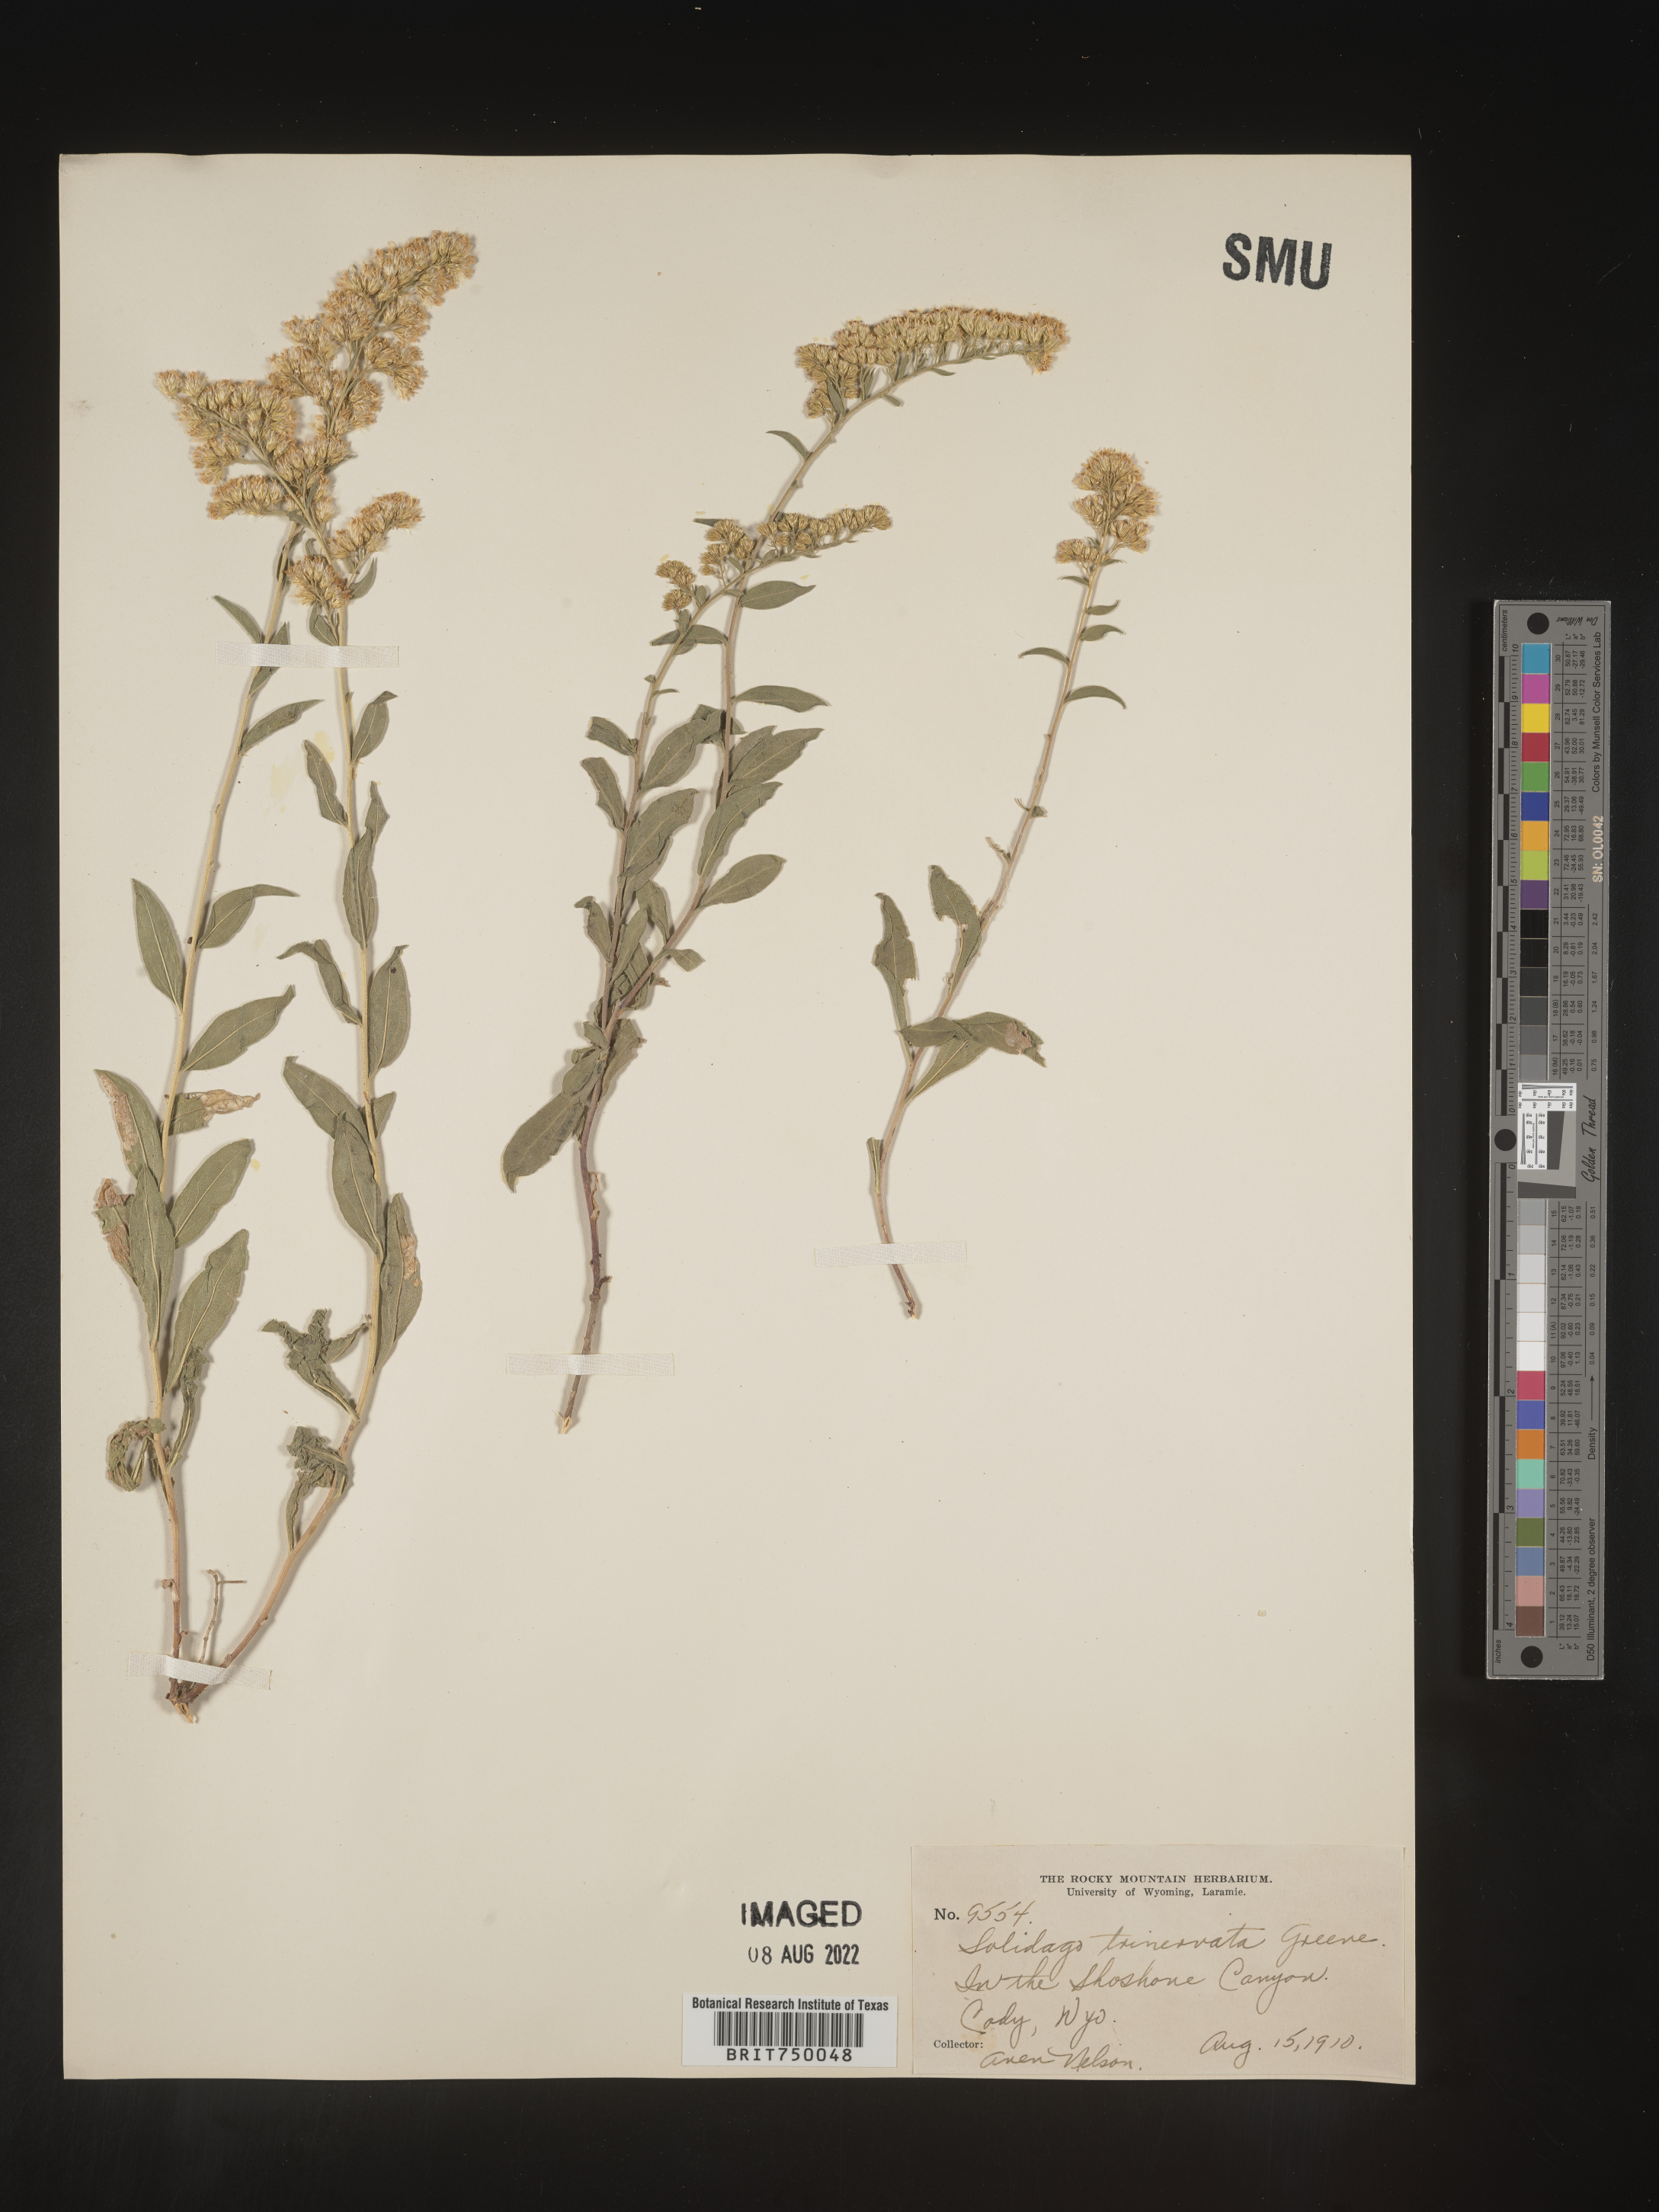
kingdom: Plantae
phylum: Tracheophyta
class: Magnoliopsida
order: Asterales
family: Asteraceae
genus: Solidago
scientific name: Solidago velutina
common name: Three-nerve goldenrod
